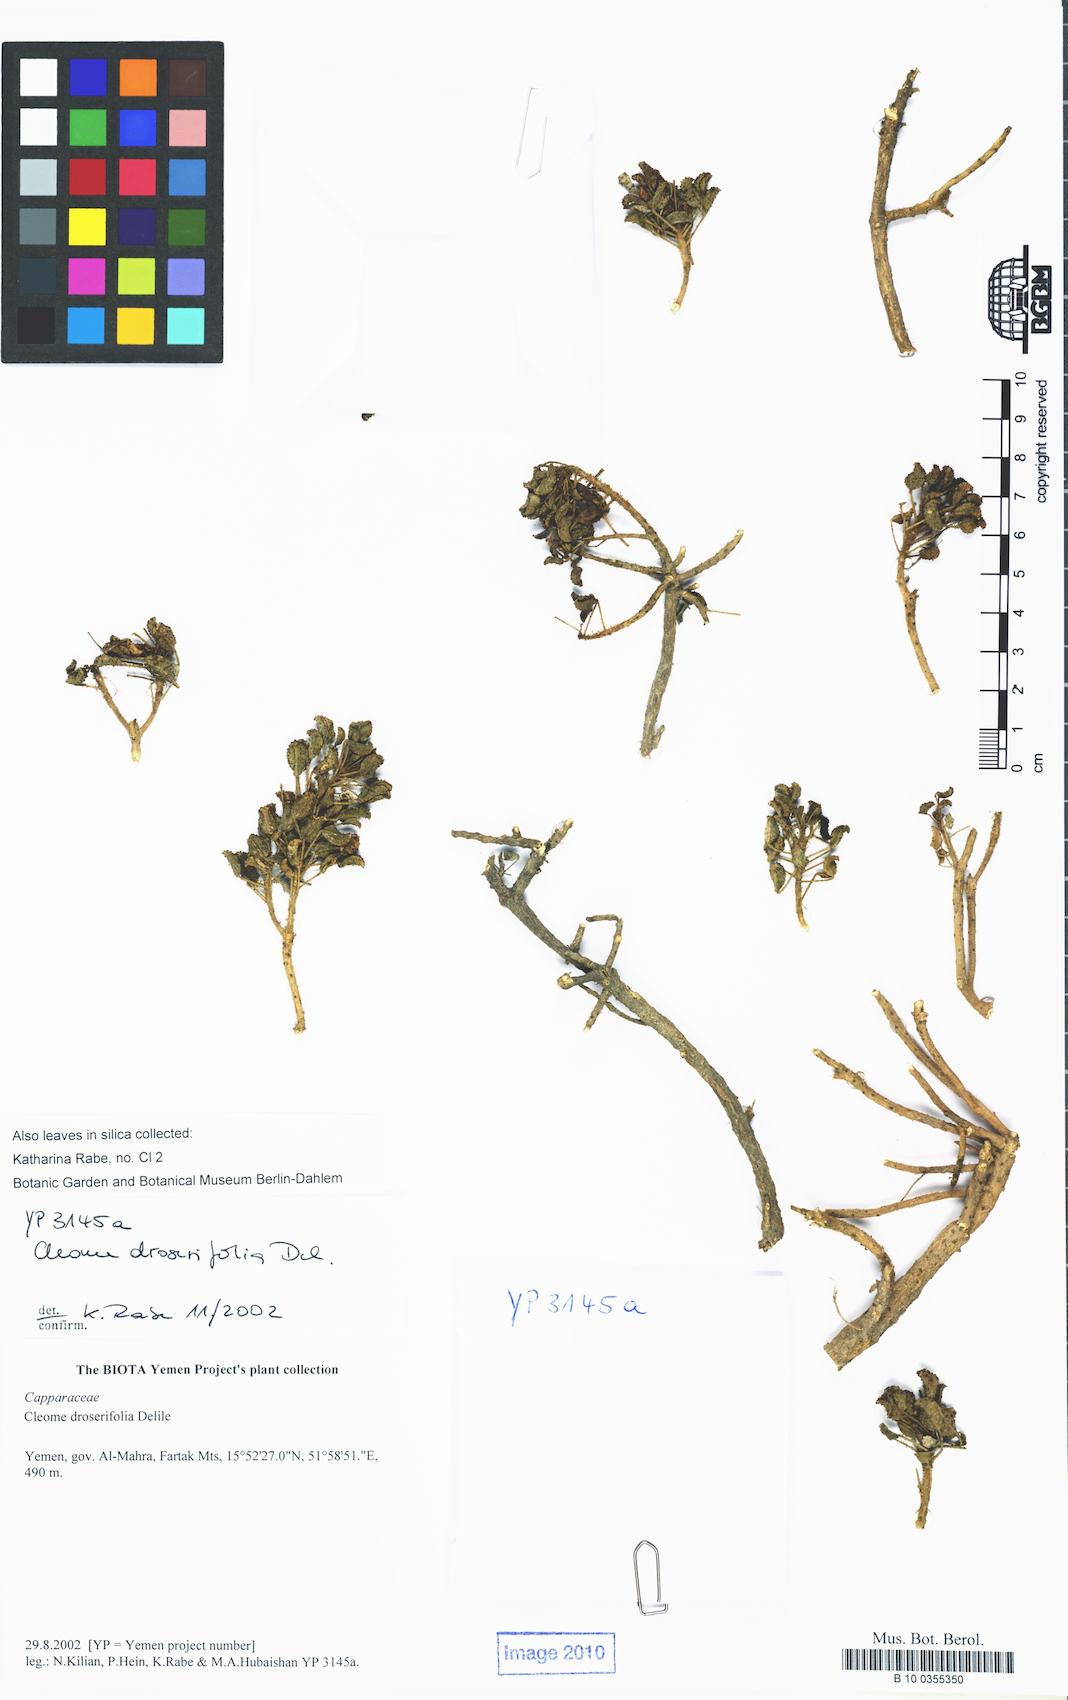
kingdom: Plantae
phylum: Tracheophyta
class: Magnoliopsida
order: Brassicales
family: Cleomaceae
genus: Rorida
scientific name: Rorida droserifolia
